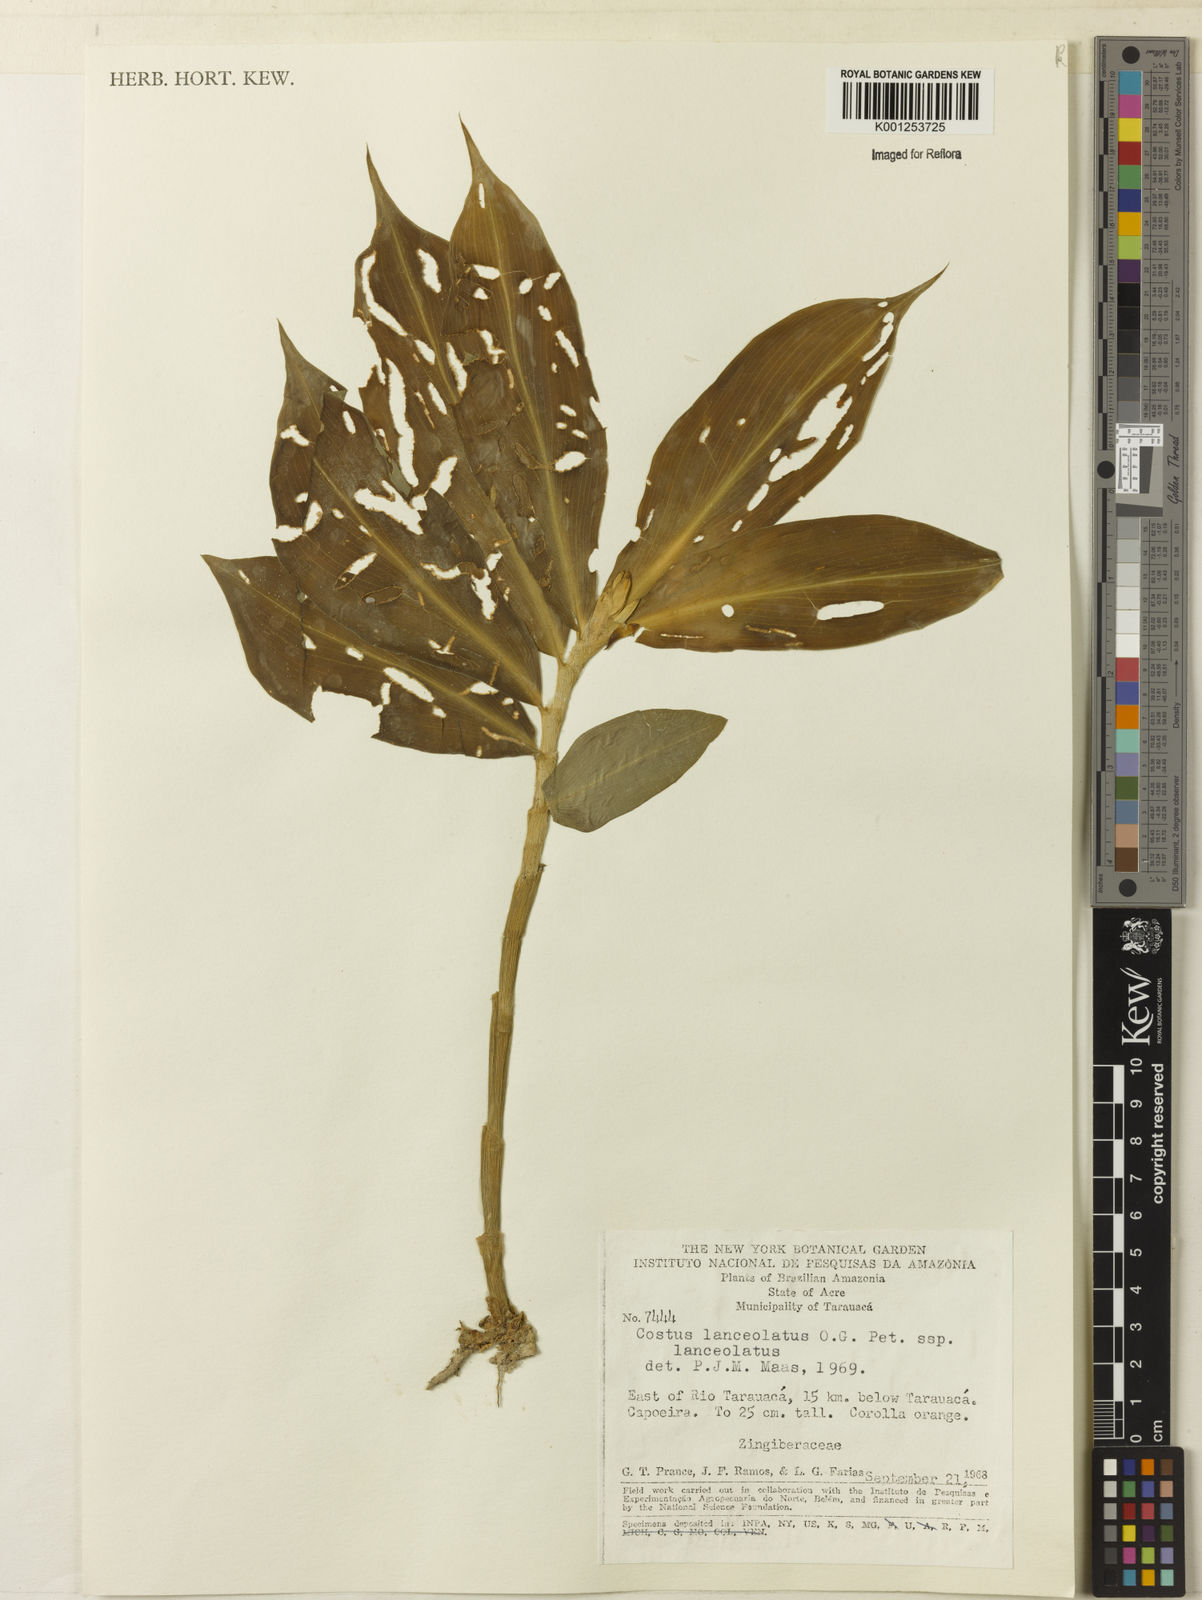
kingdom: Plantae
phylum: Tracheophyta
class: Liliopsida
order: Zingiberales
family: Costaceae
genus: Chamaecostus
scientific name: Chamaecostus lanceolatus
